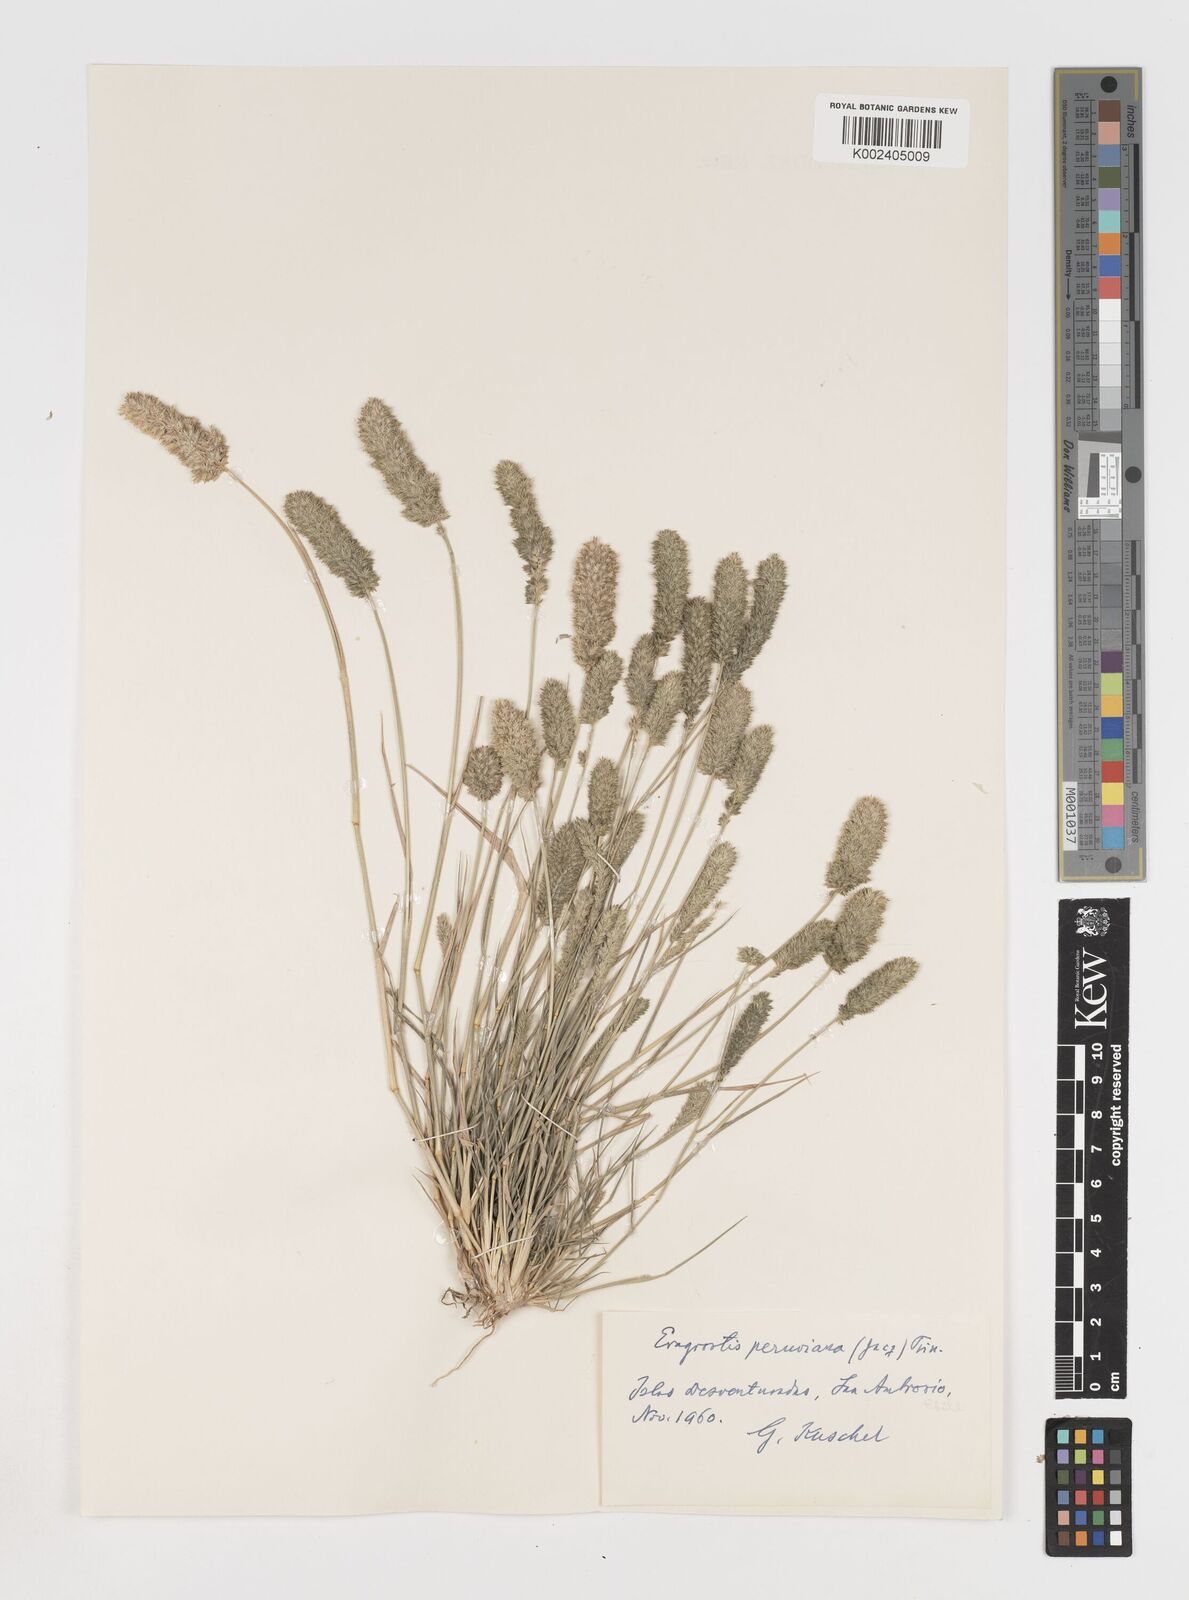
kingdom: Plantae
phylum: Tracheophyta
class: Liliopsida
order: Poales
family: Poaceae
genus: Eragrostis
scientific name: Eragrostis peruviana
